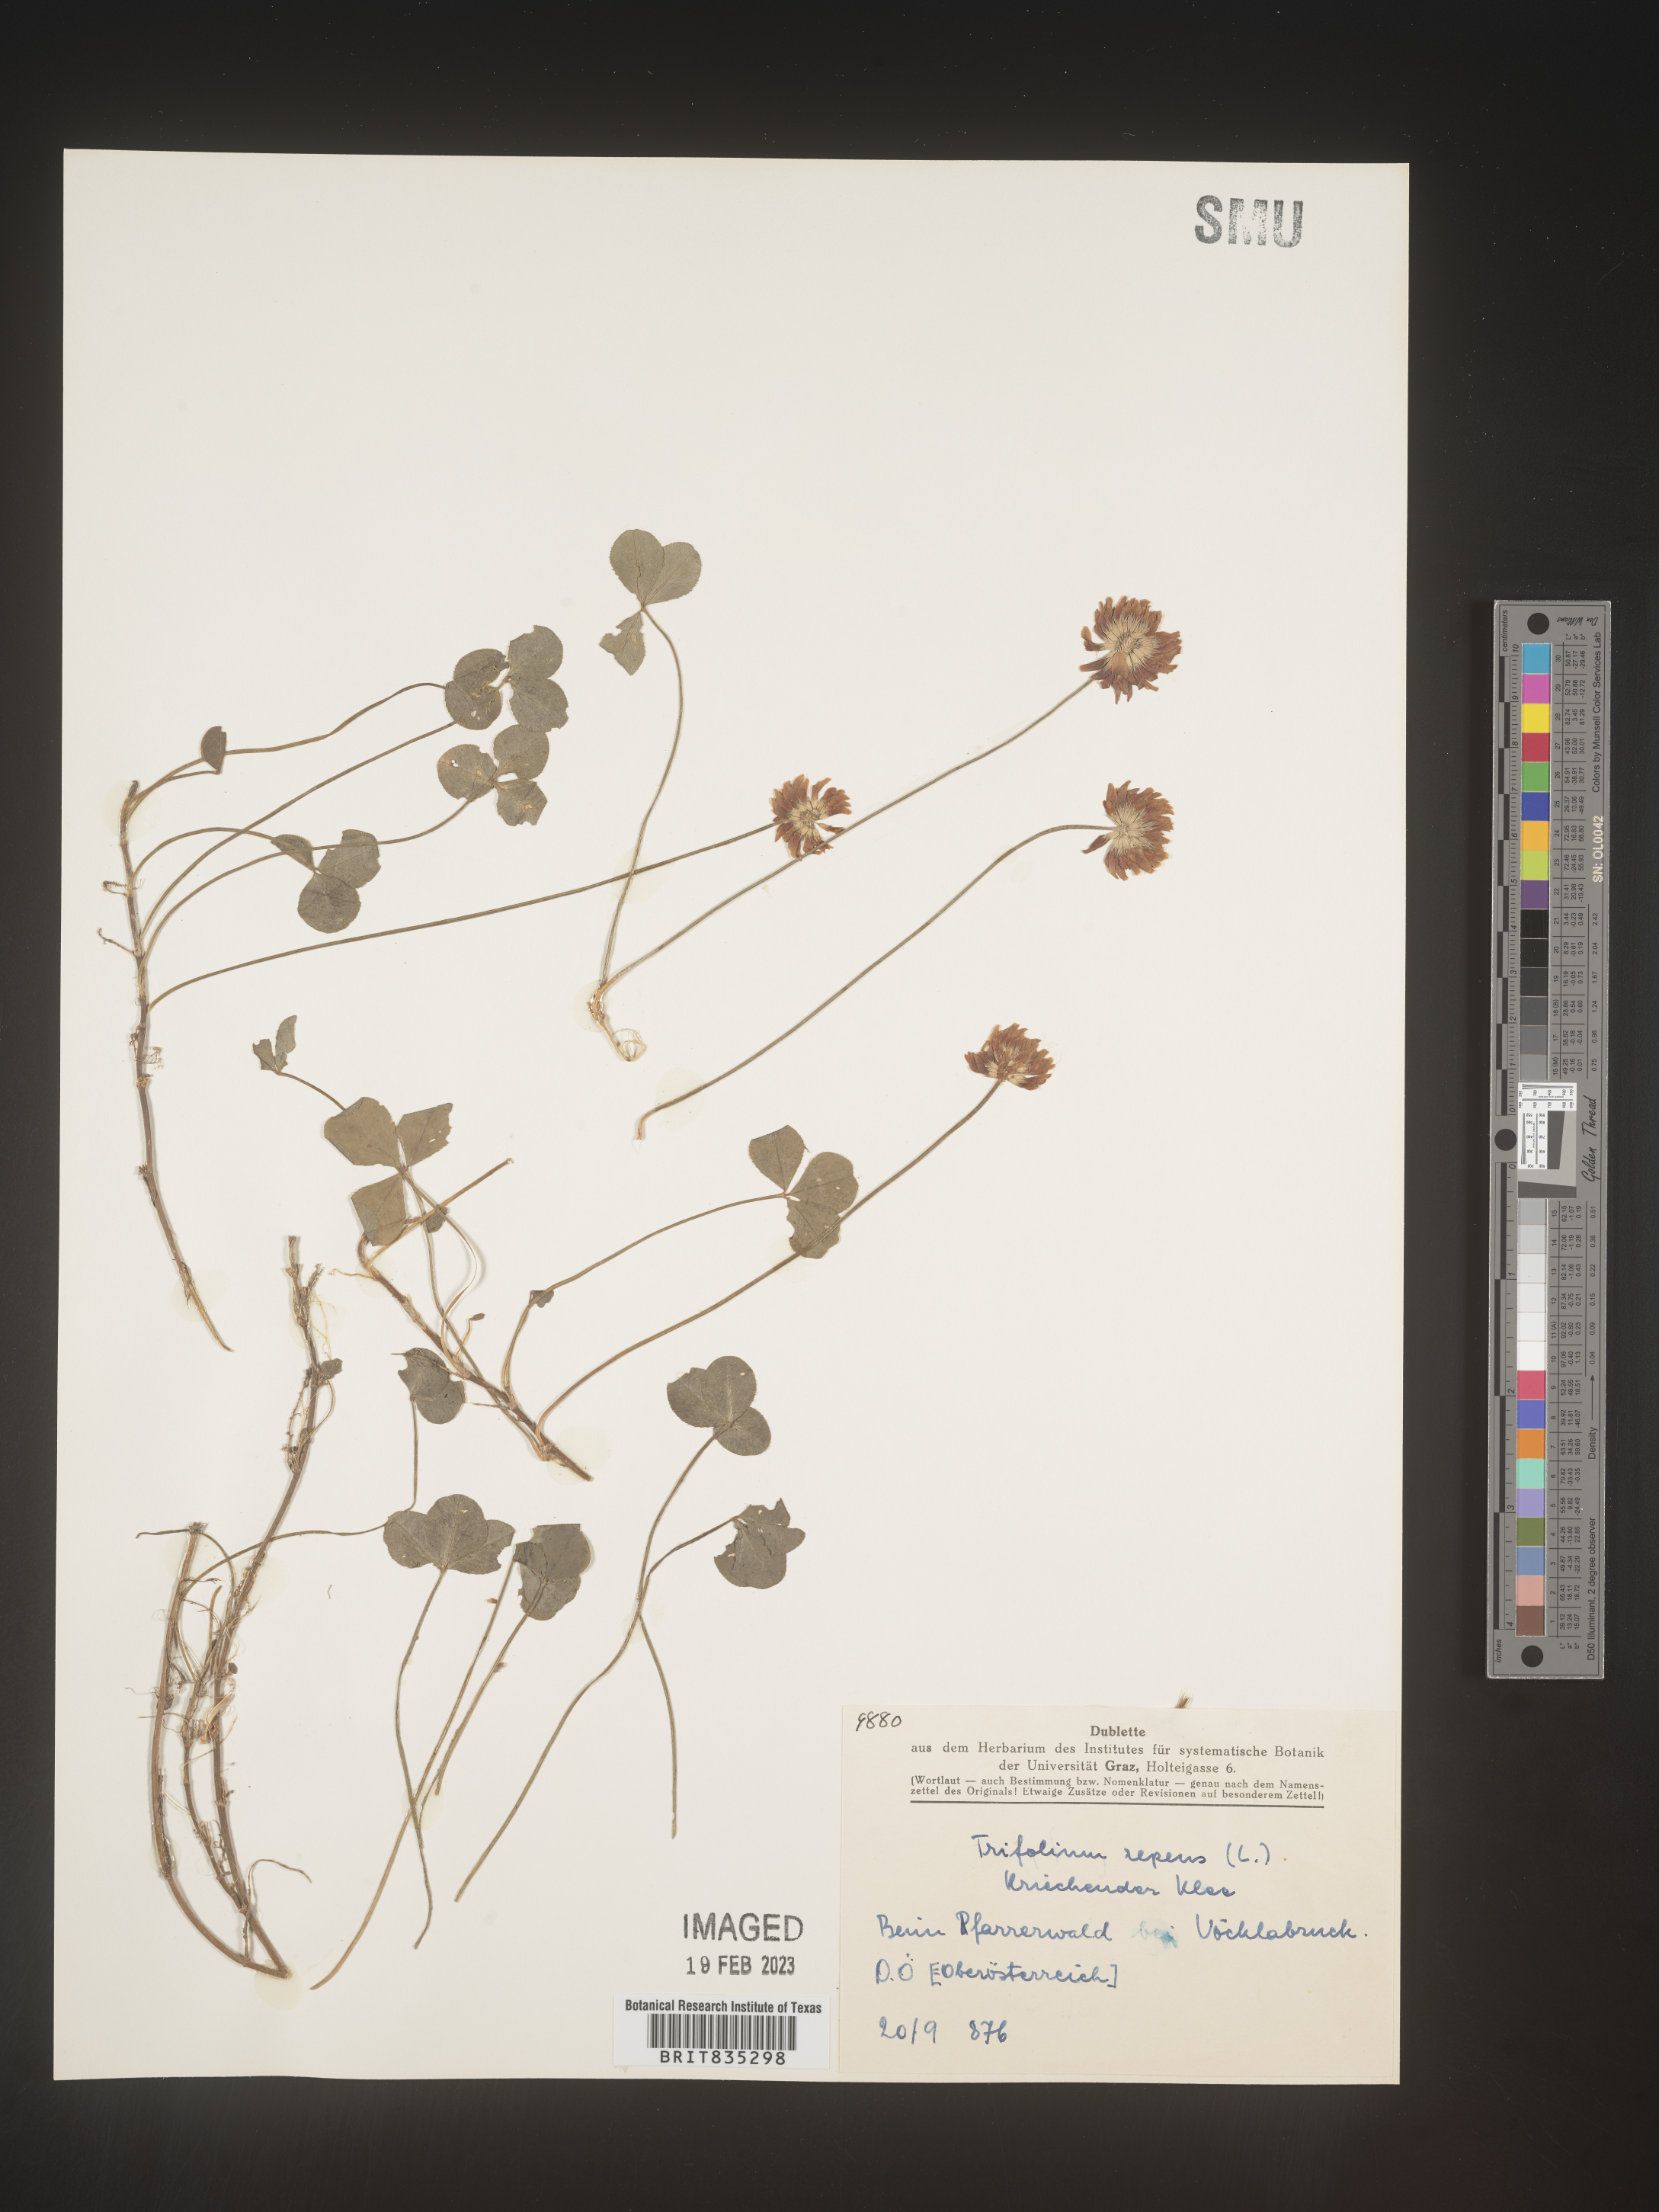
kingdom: Plantae
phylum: Tracheophyta
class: Magnoliopsida
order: Fabales
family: Fabaceae
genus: Trifolium
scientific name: Trifolium
